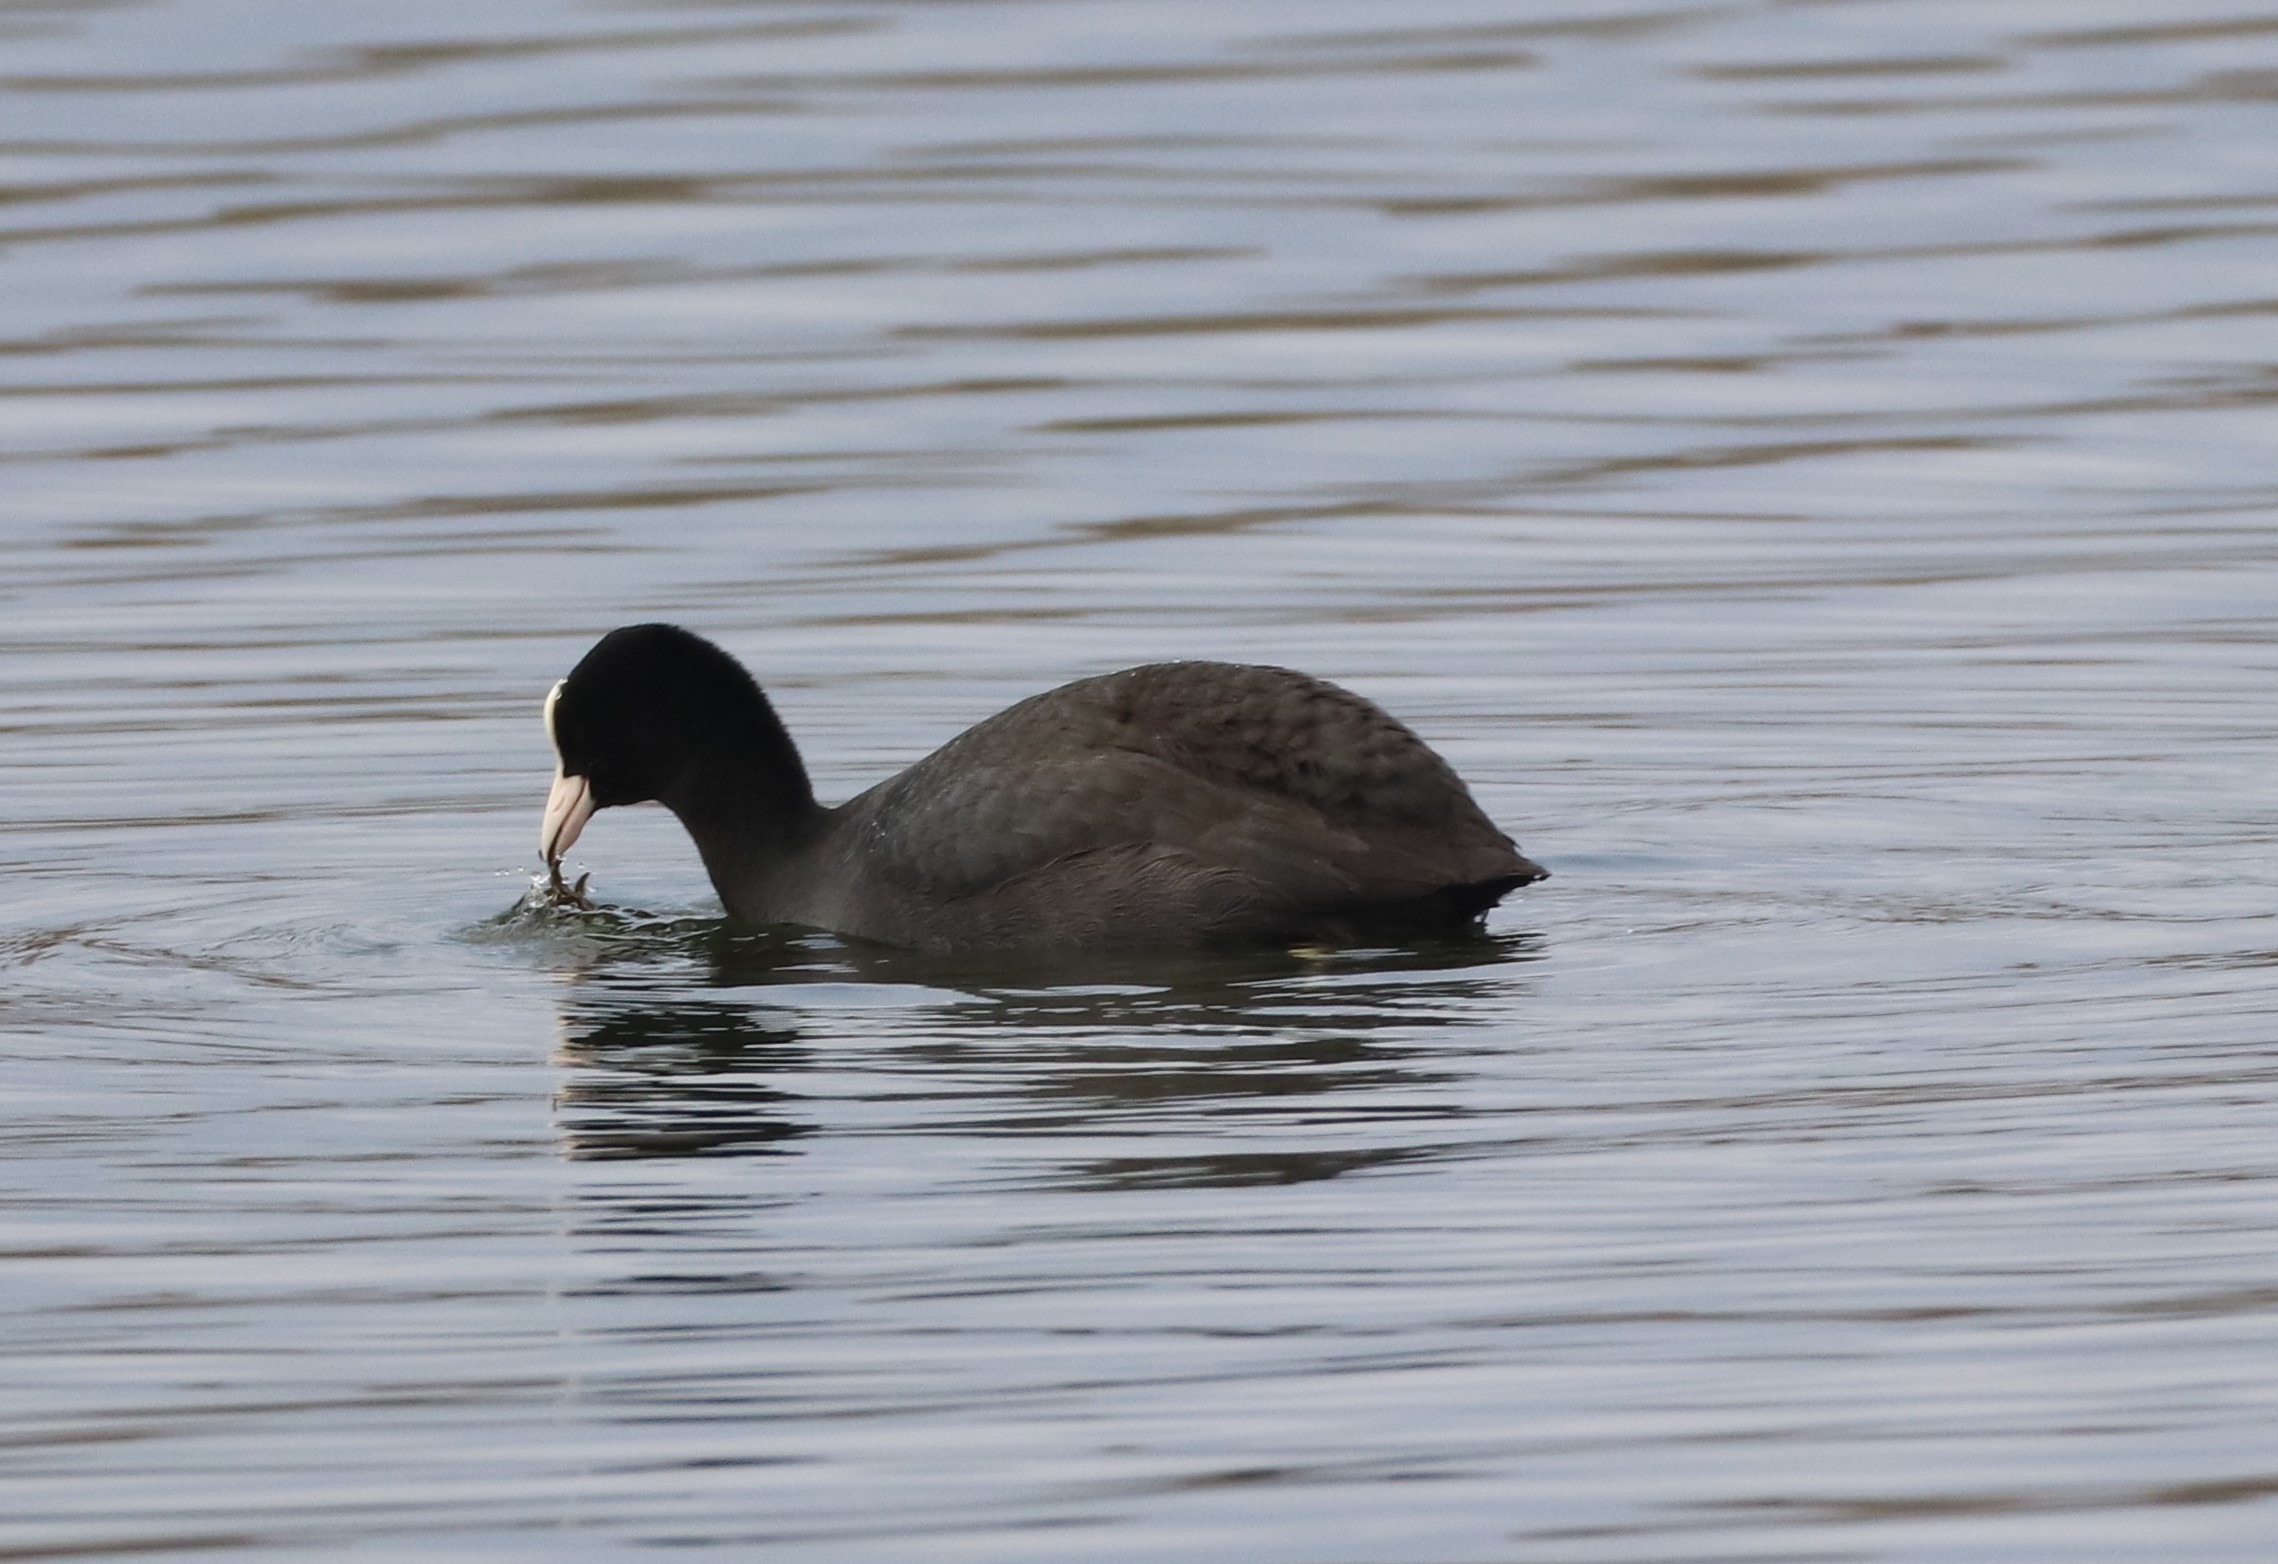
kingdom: Animalia
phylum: Chordata
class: Aves
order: Gruiformes
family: Rallidae
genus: Fulica
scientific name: Fulica atra
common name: Blishøne
